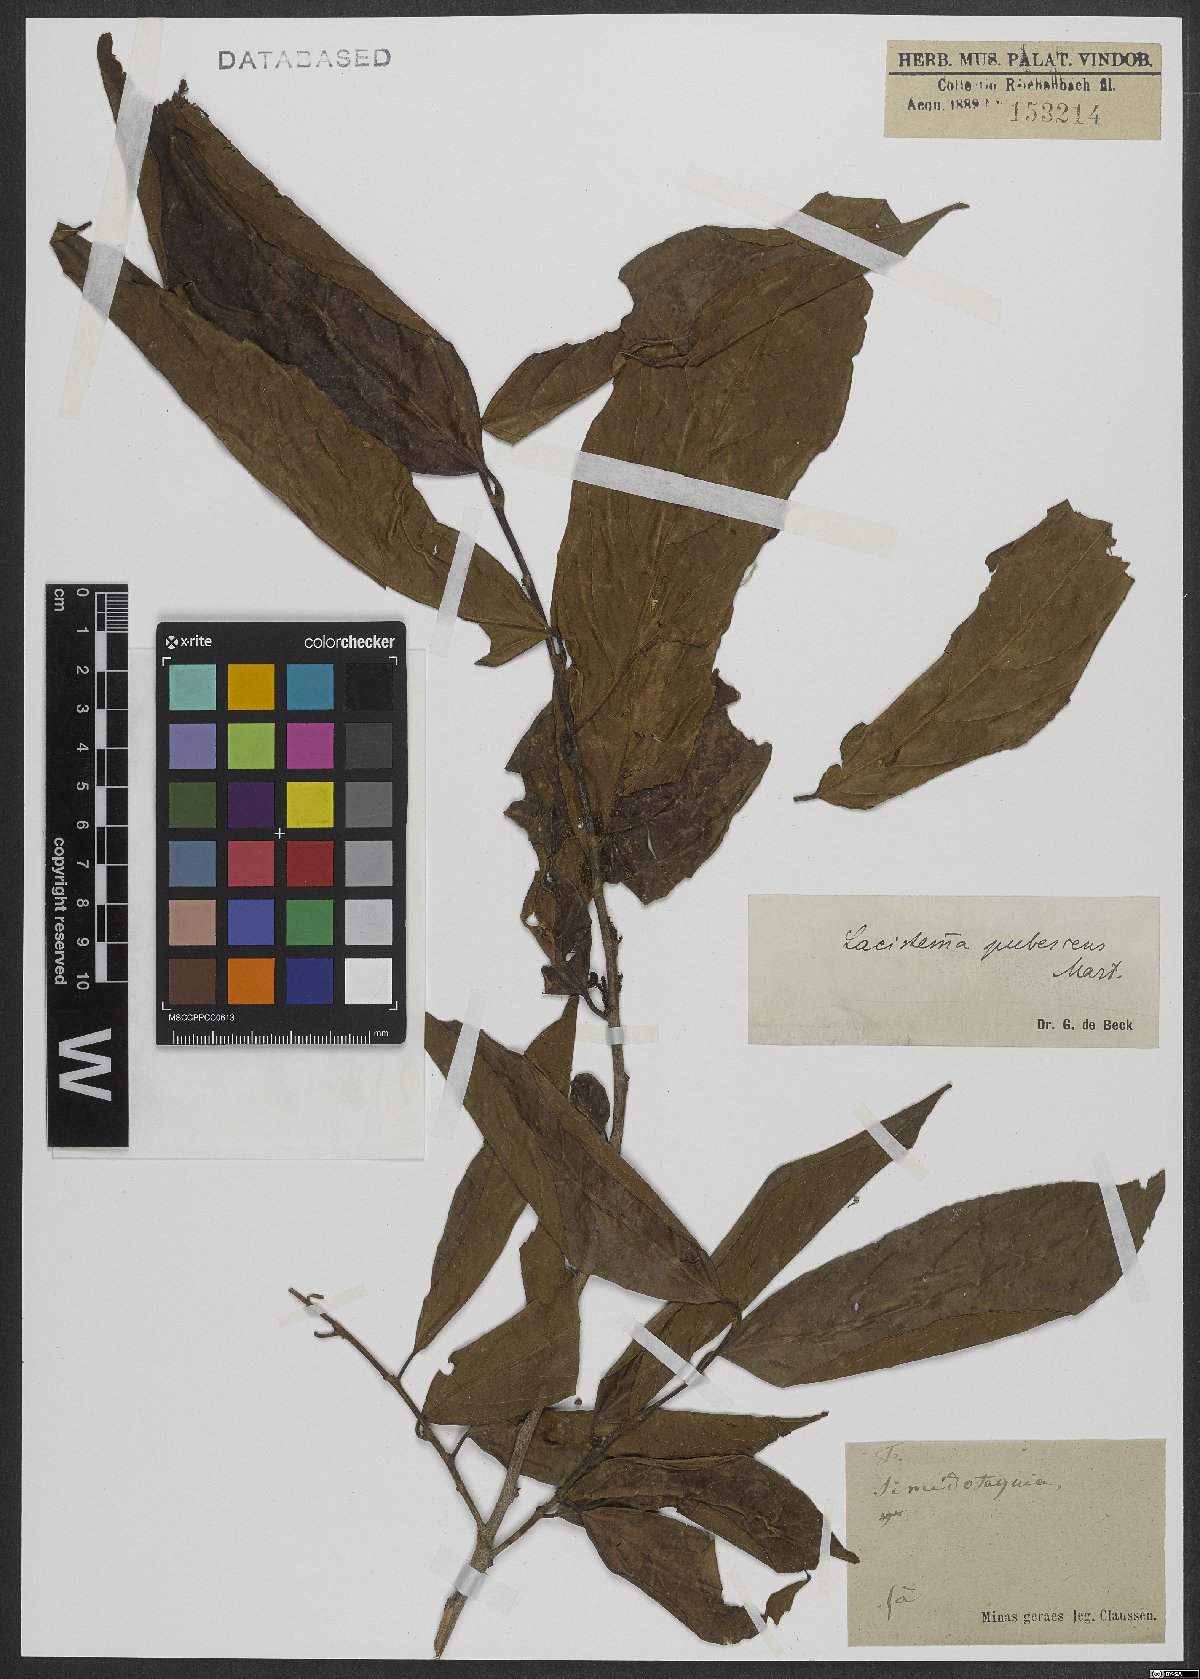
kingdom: Plantae
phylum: Tracheophyta
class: Magnoliopsida
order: Malpighiales
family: Lacistemataceae
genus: Lacistema
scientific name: Lacistema pubescens
